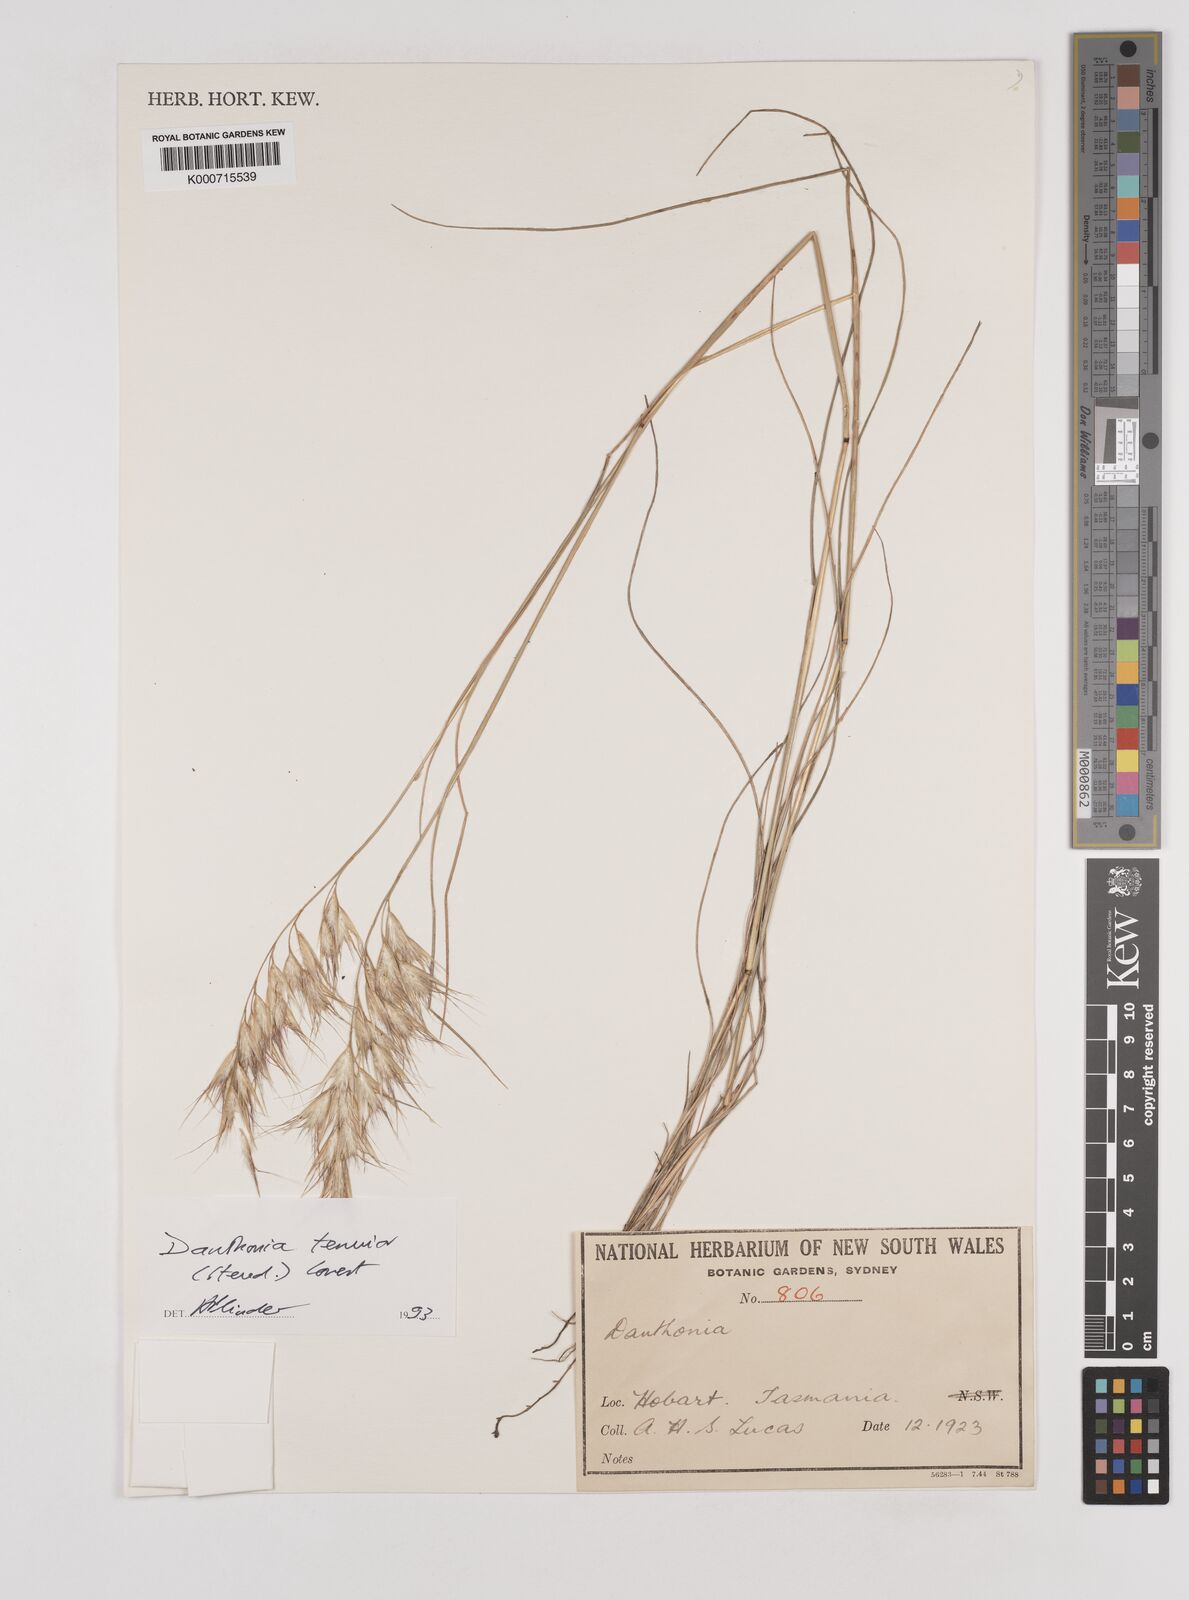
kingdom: Plantae
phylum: Tracheophyta
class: Liliopsida
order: Poales
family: Poaceae
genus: Rytidosperma
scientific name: Rytidosperma tenuius
